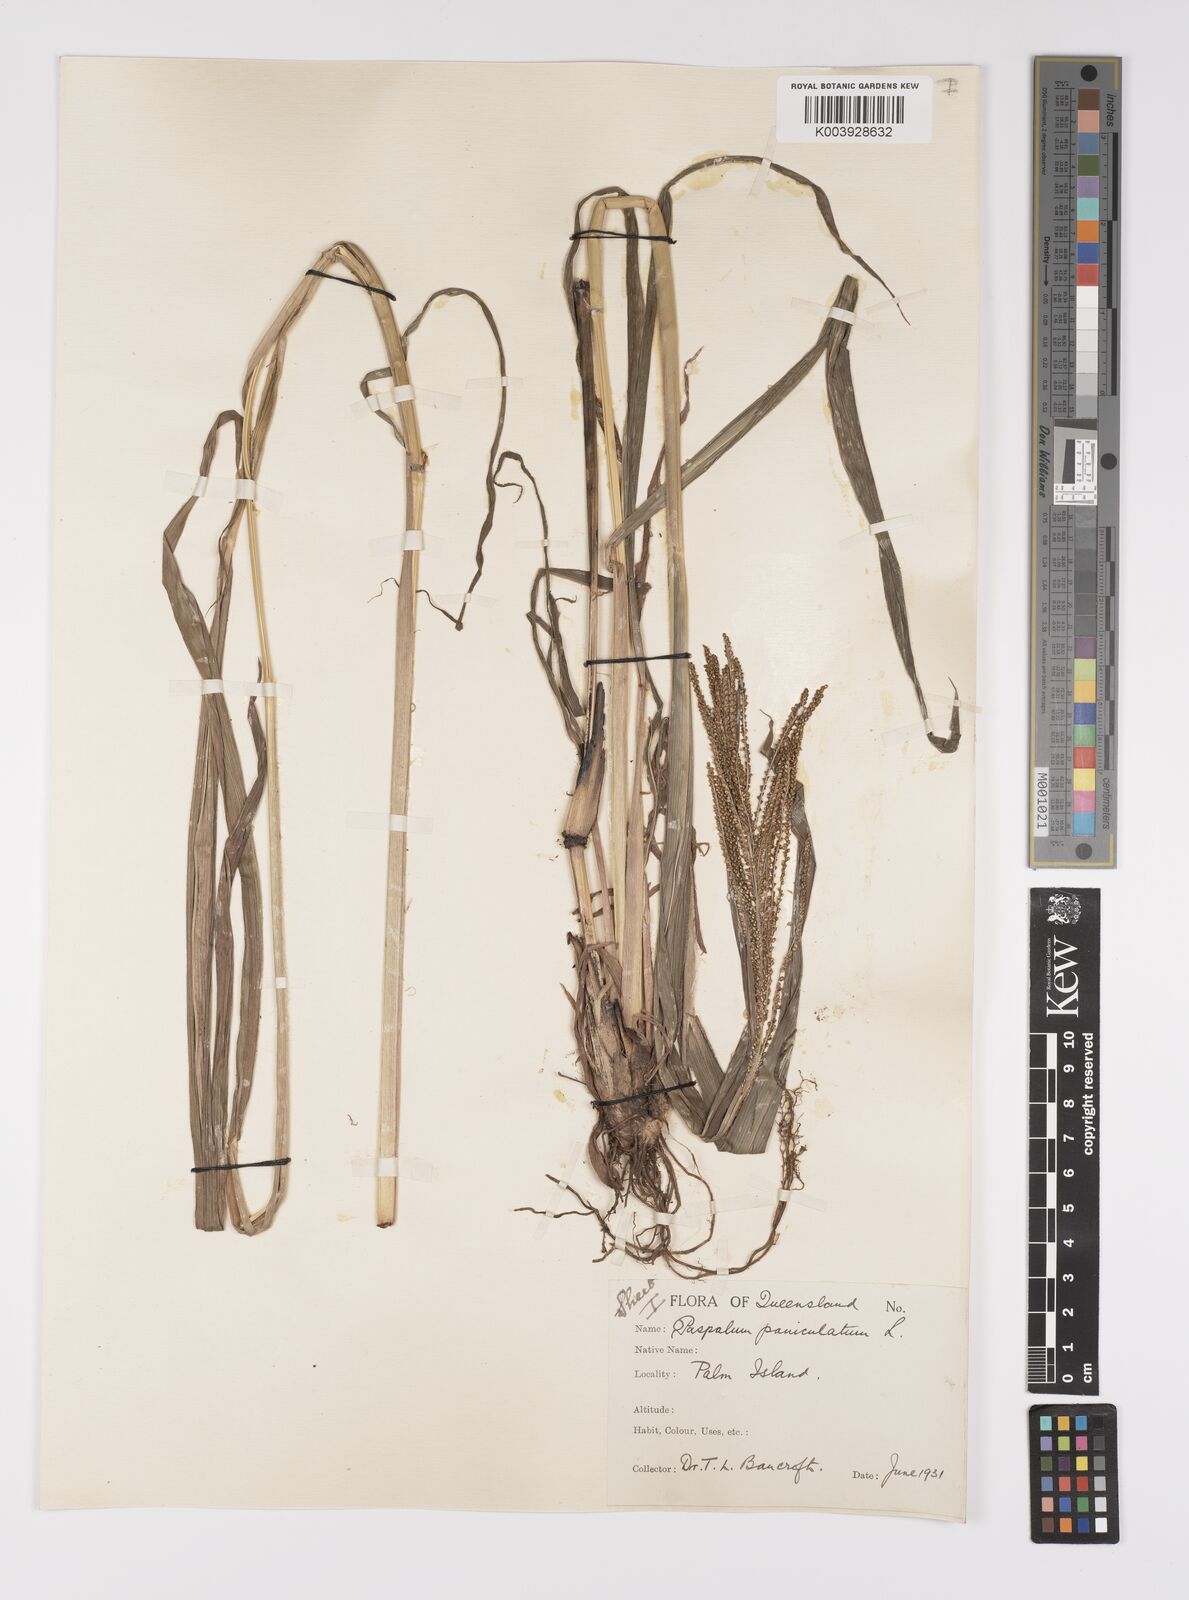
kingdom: Plantae
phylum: Tracheophyta
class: Liliopsida
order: Poales
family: Poaceae
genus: Paspalum
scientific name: Paspalum paniculatum
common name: Arrocillo
